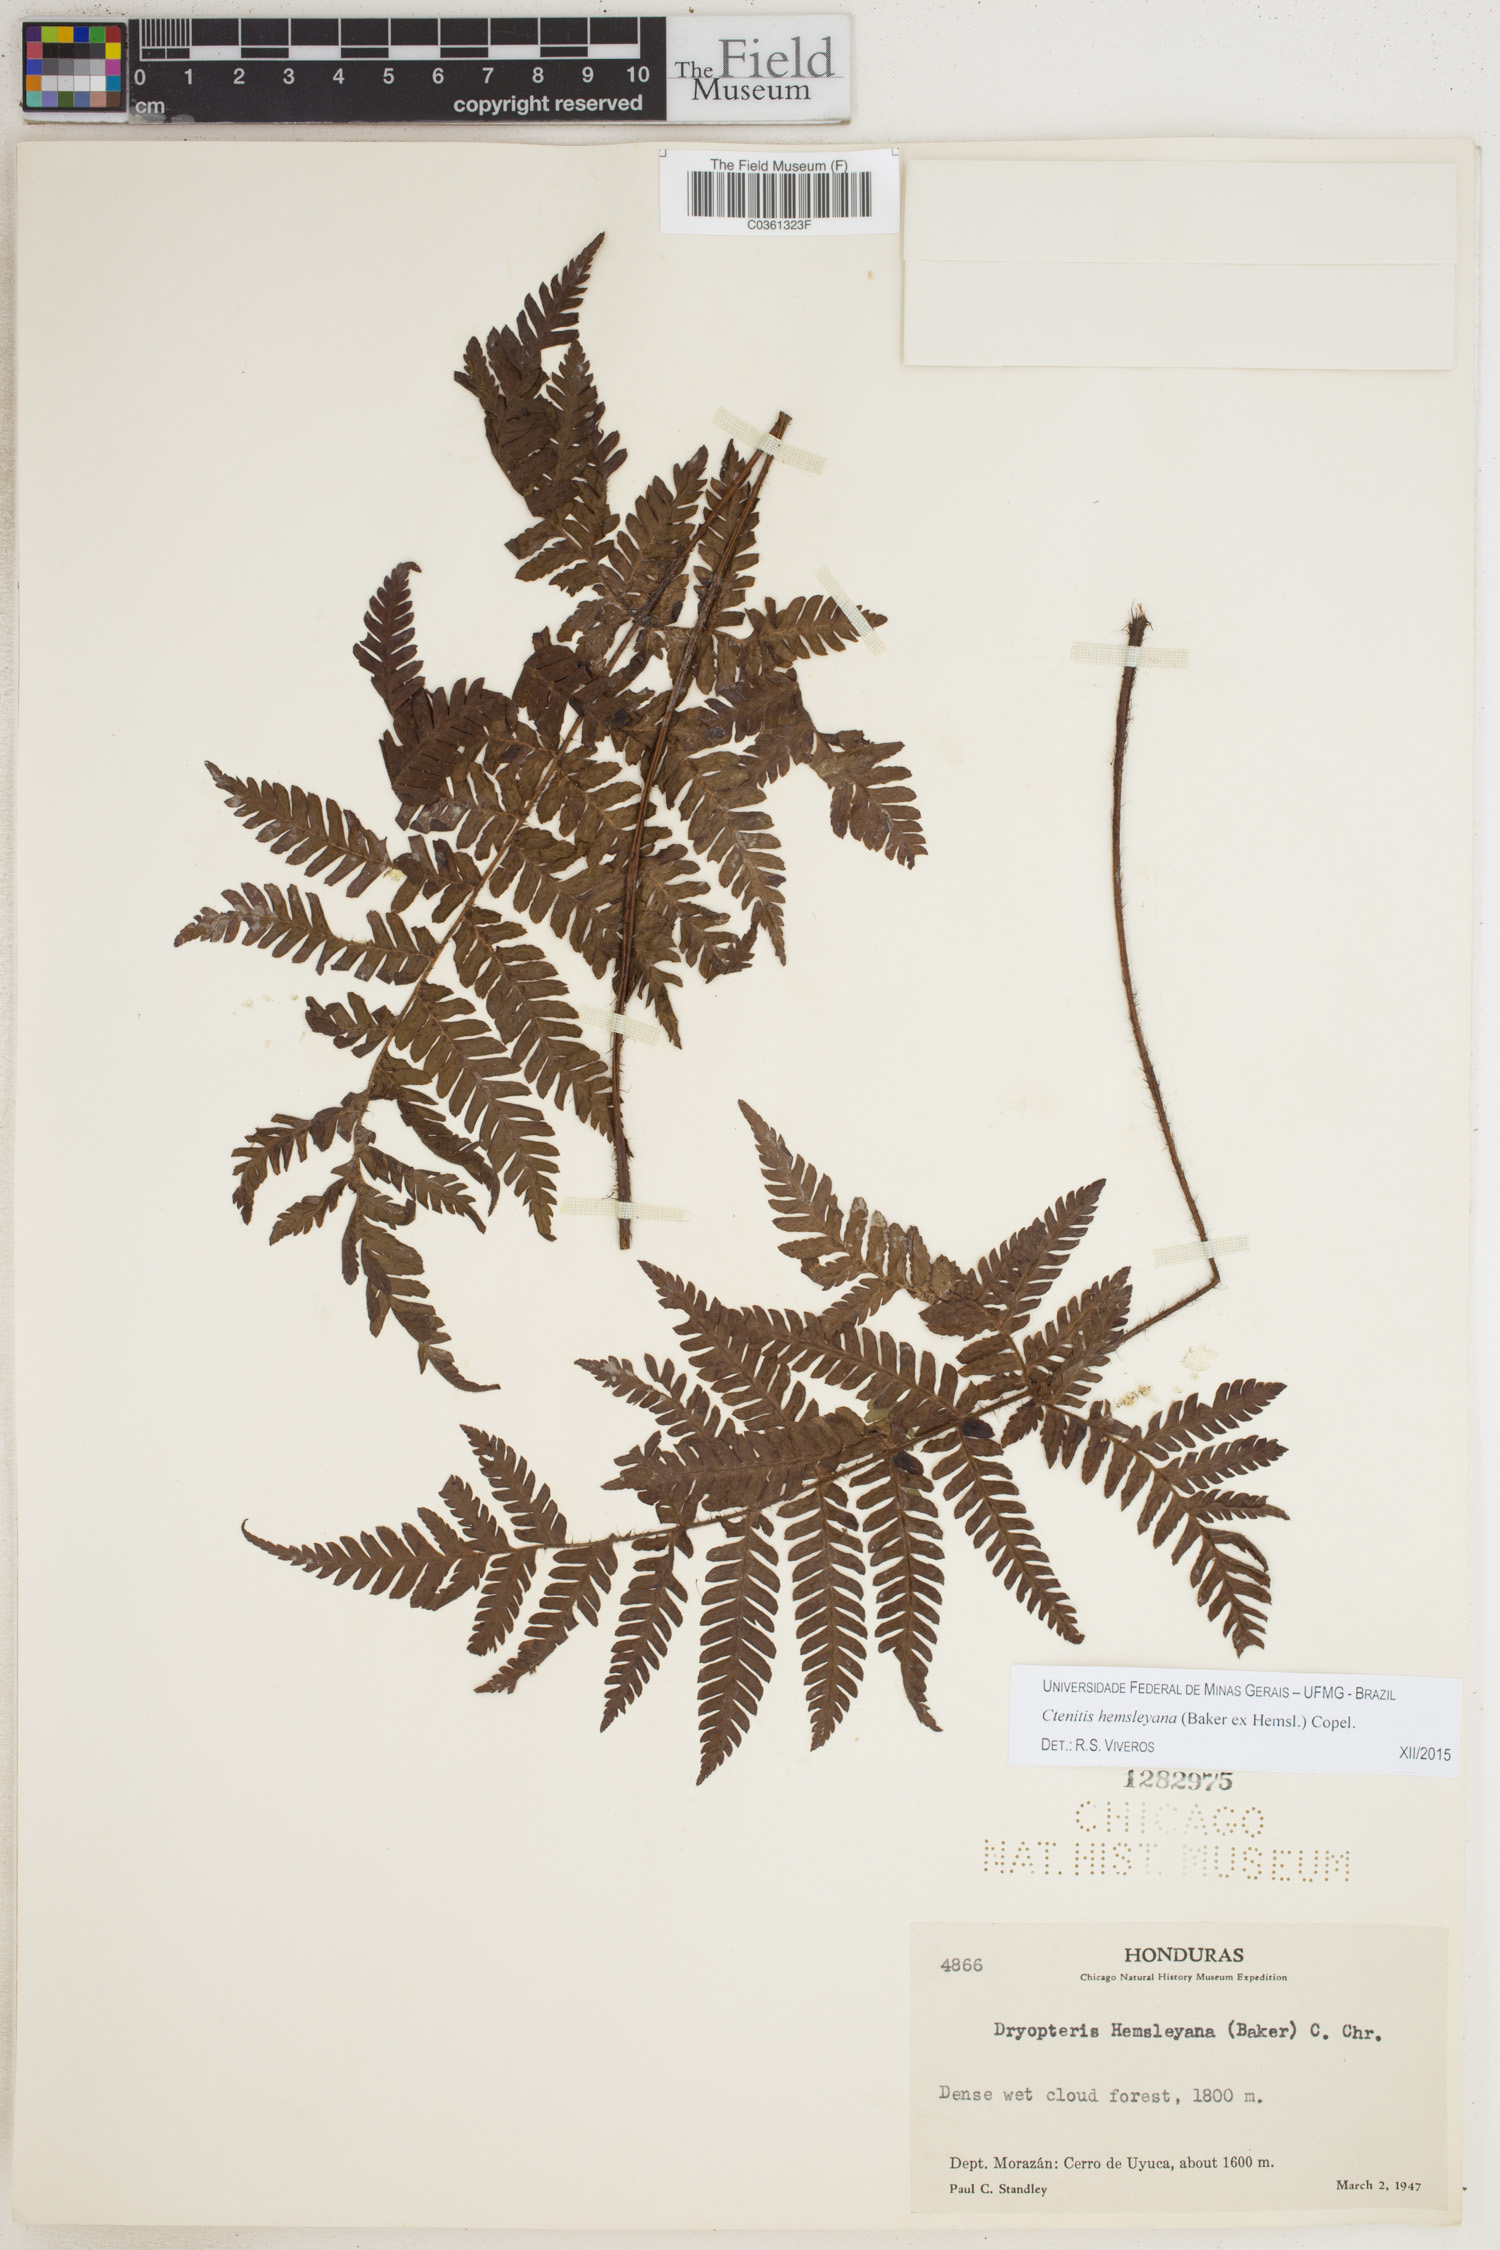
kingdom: Plantae
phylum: Tracheophyta
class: Polypodiopsida
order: Polypodiales
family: Dryopteridaceae
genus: Ctenitis
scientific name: Ctenitis hemsleyana
